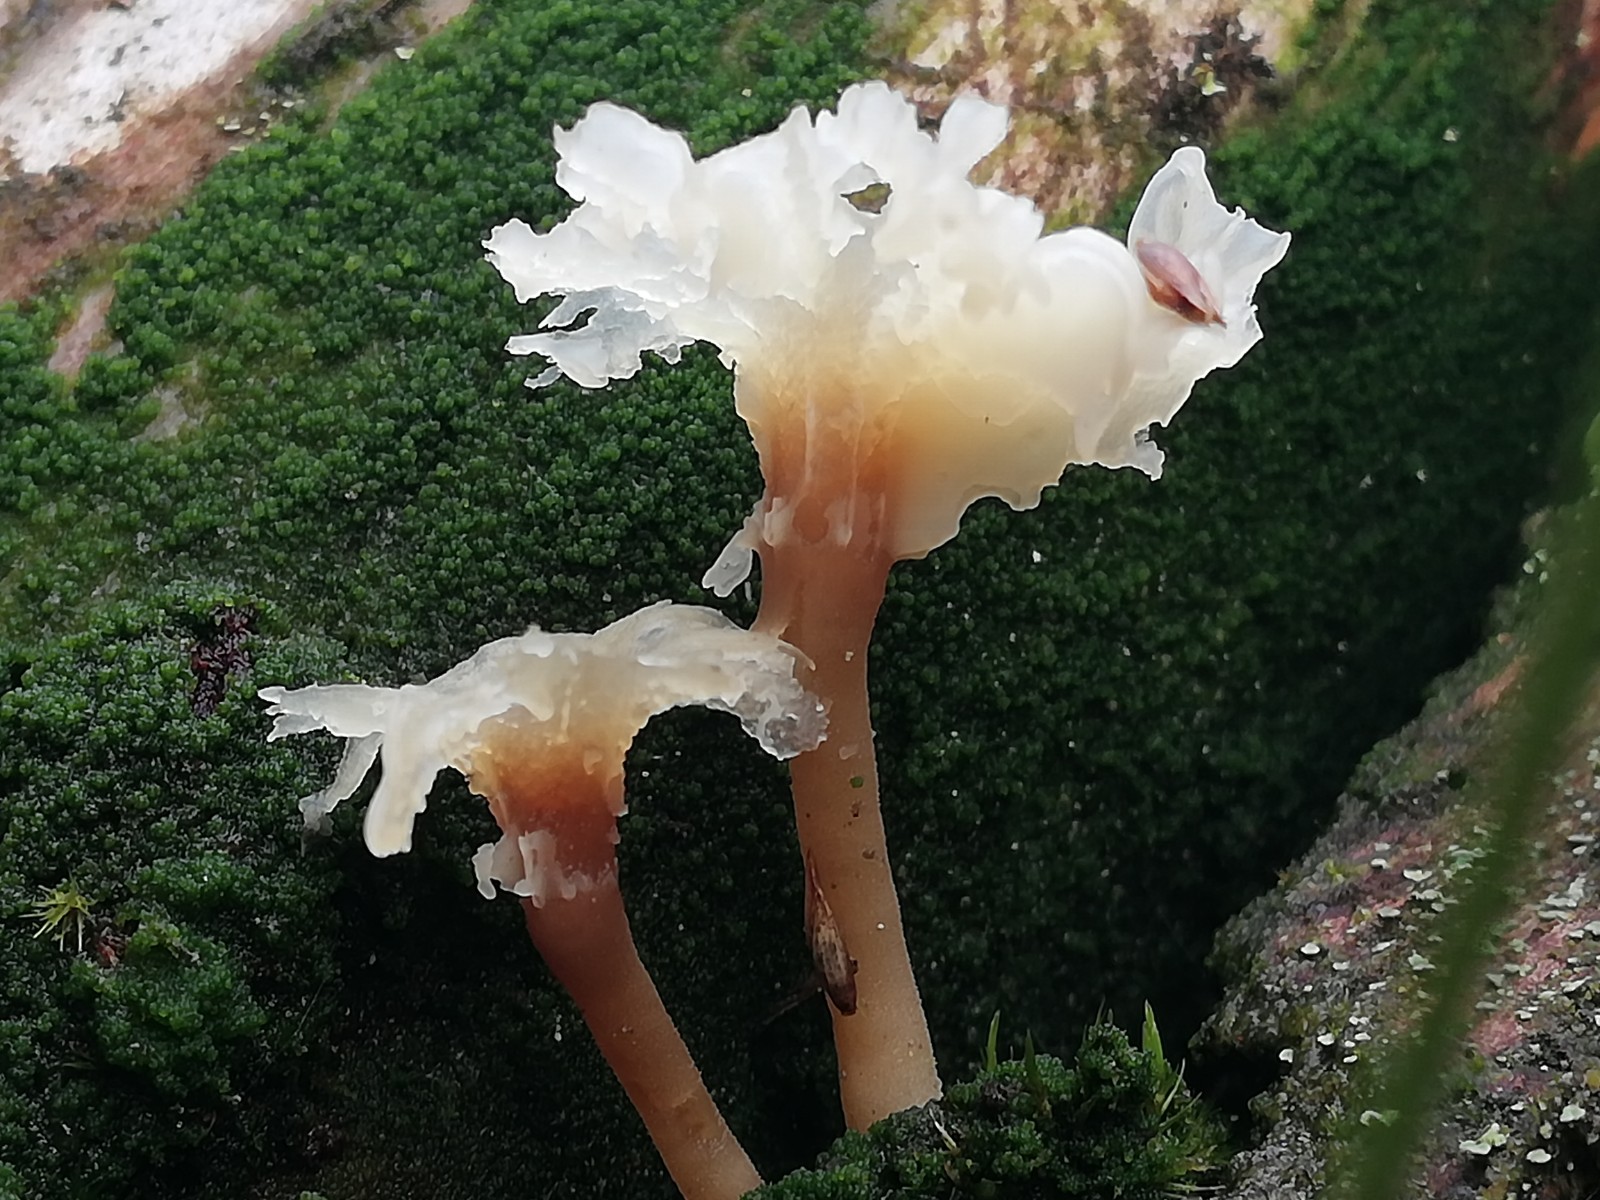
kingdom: Fungi
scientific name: Fungi
